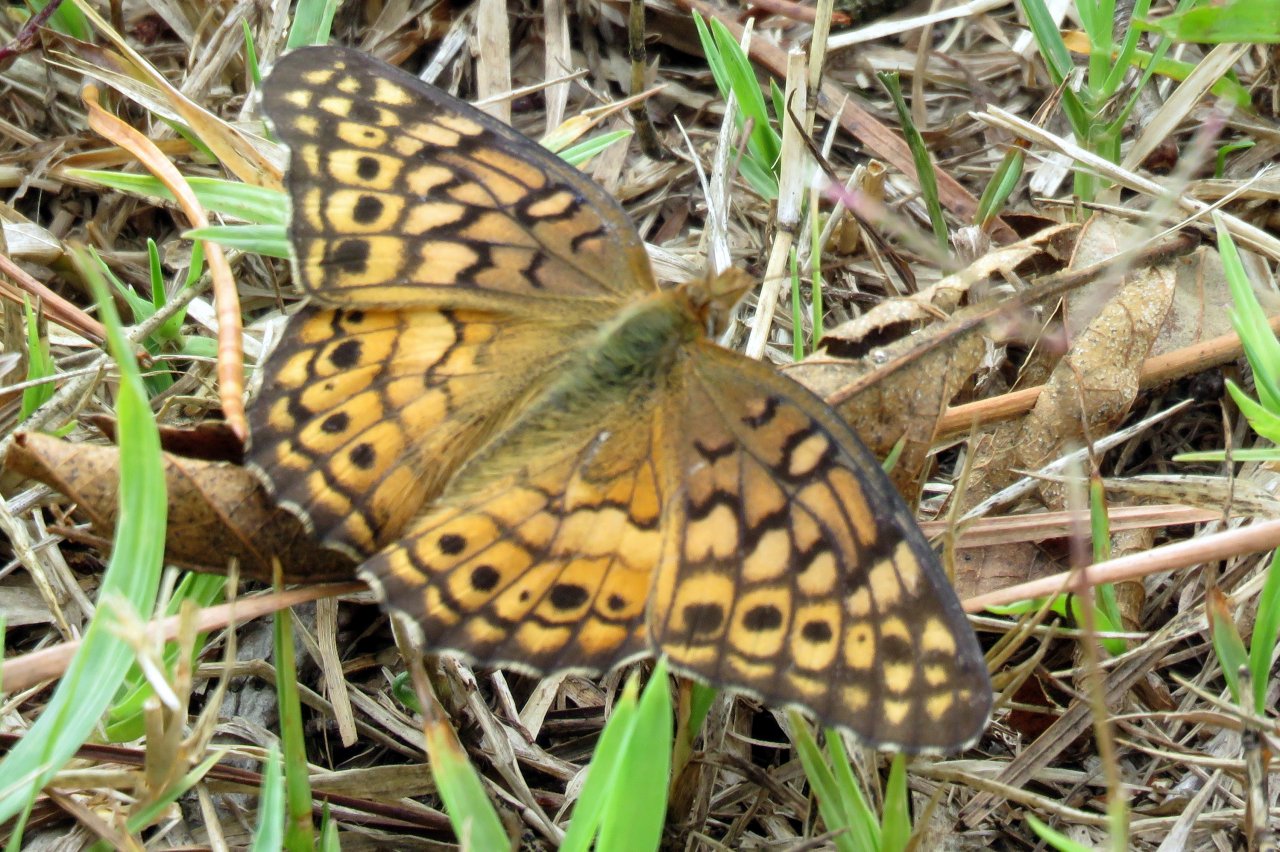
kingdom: Animalia
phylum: Arthropoda
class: Insecta
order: Lepidoptera
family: Nymphalidae
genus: Euptoieta
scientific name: Euptoieta claudia
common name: Variegated Fritillary
